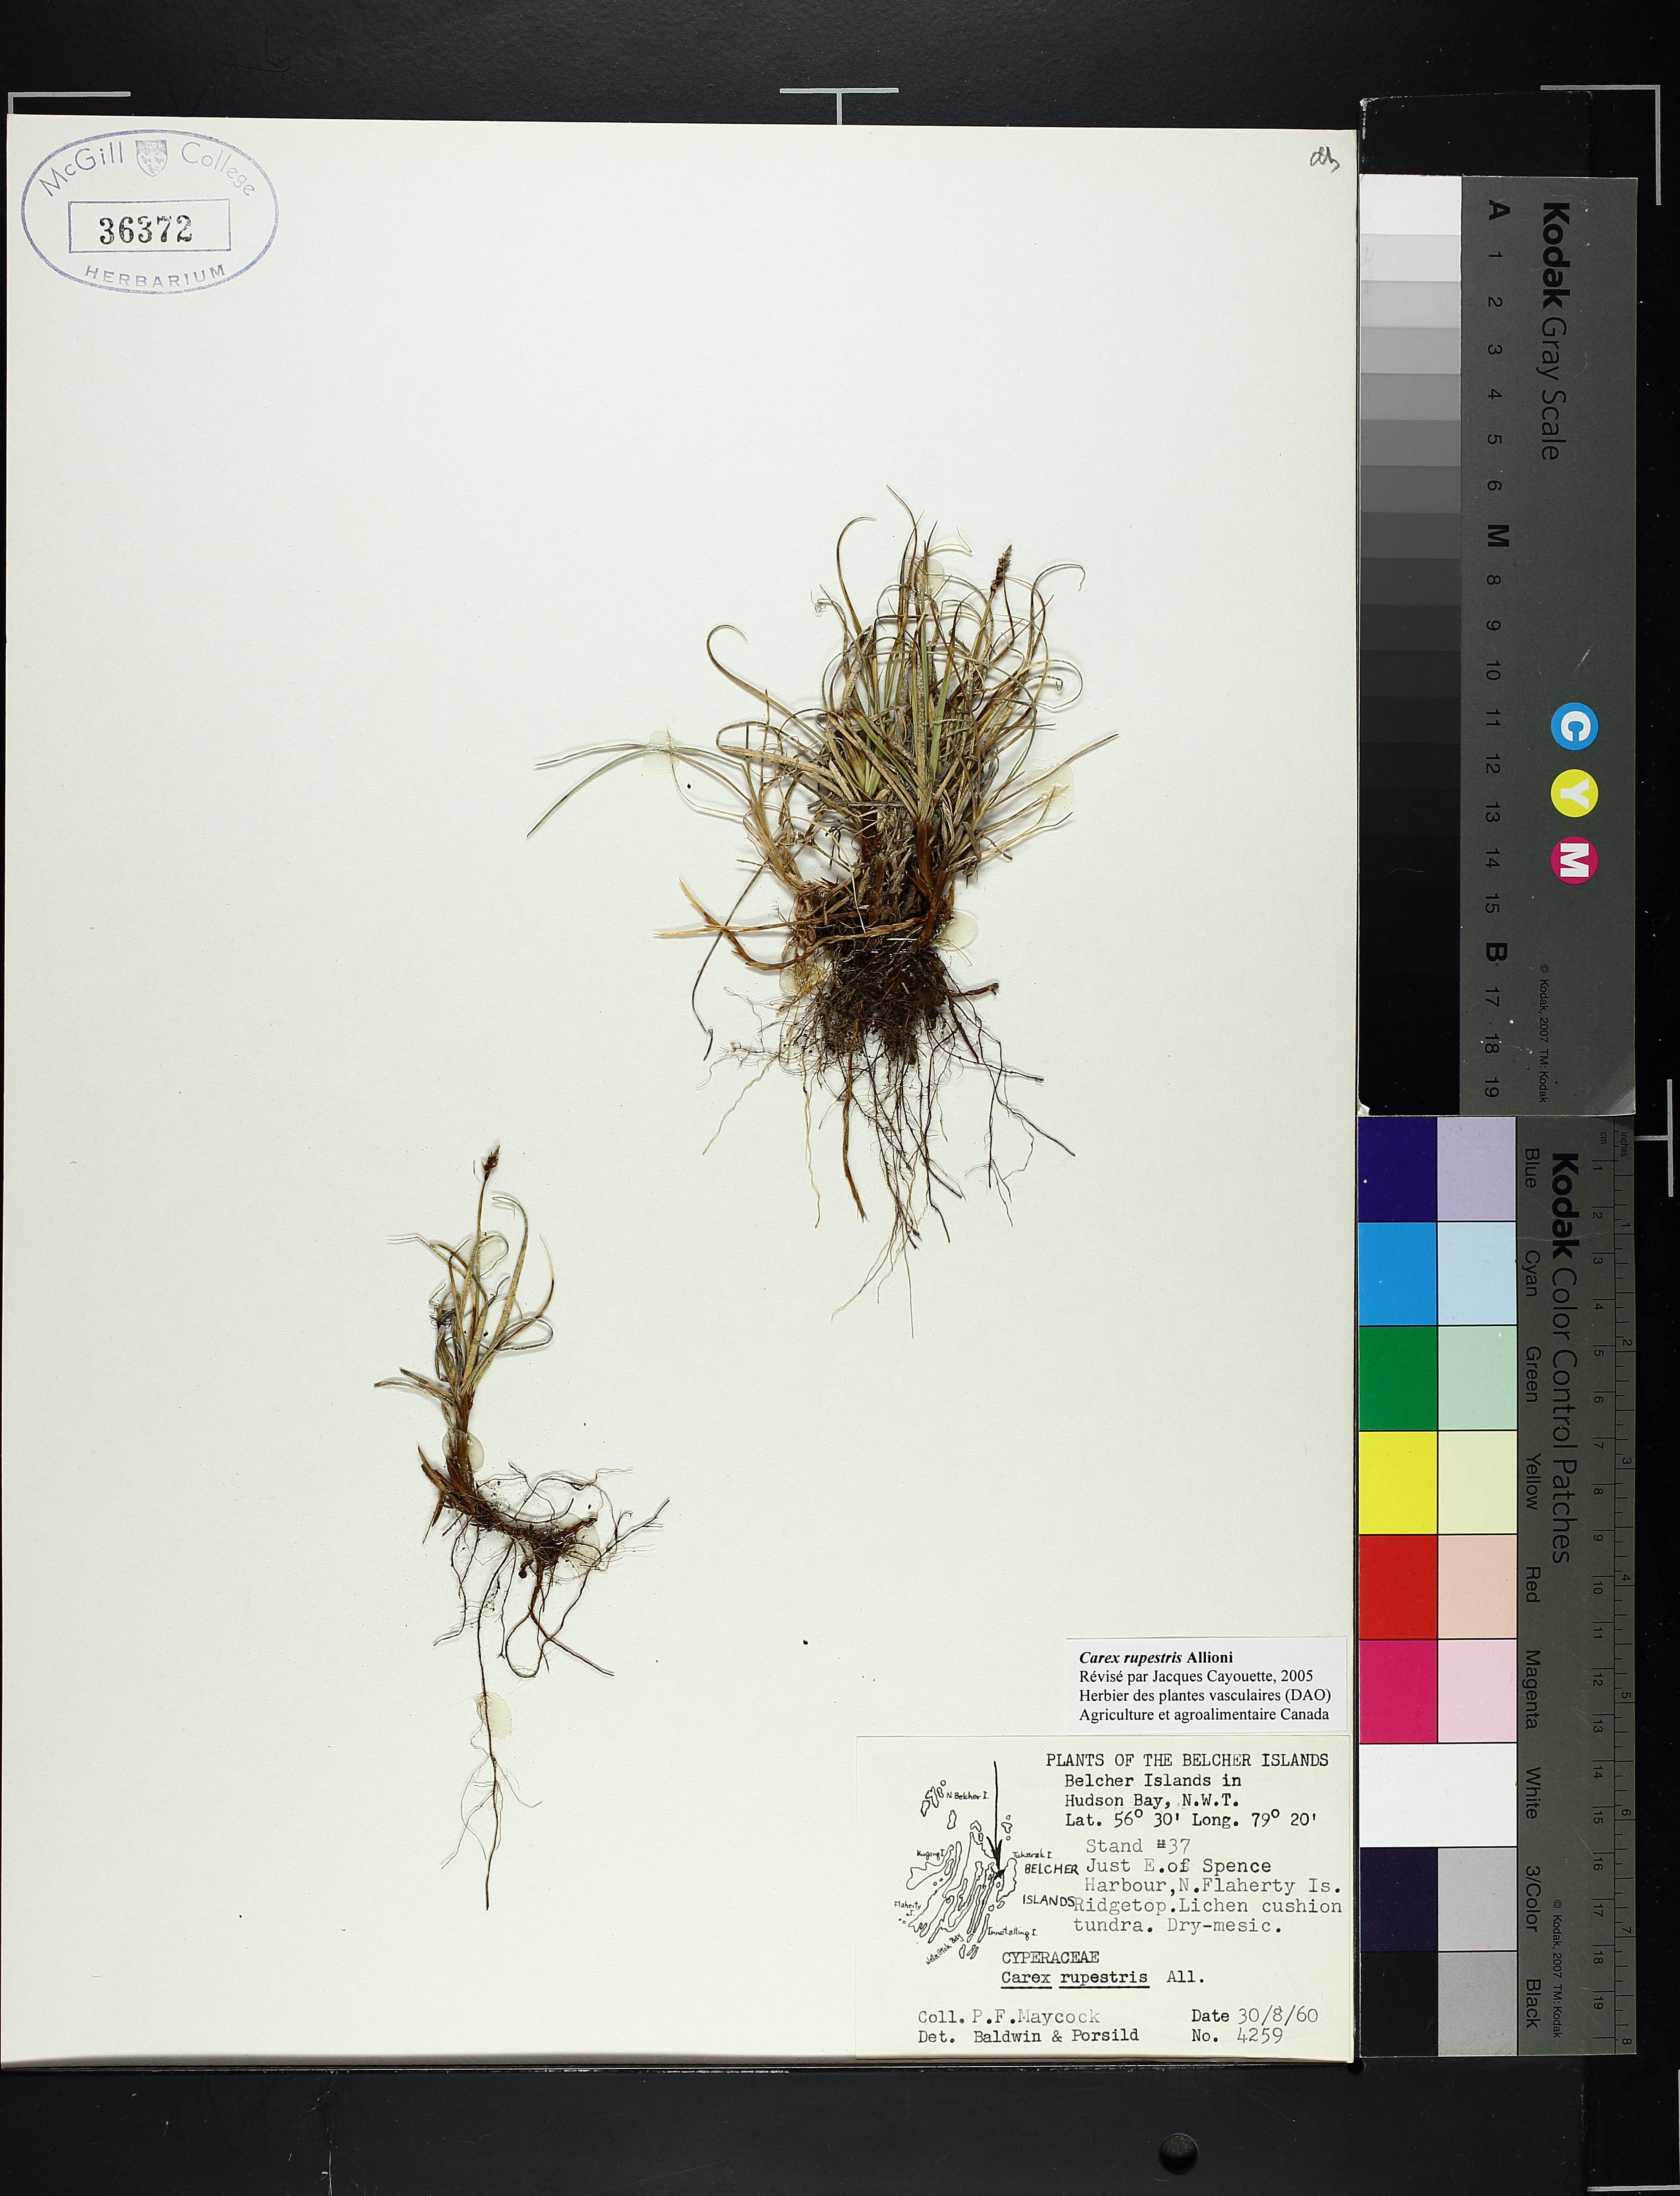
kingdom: Plantae
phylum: Tracheophyta
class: Liliopsida
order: Poales
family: Cyperaceae
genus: Carex
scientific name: Carex rupestris
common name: Rock sedge
